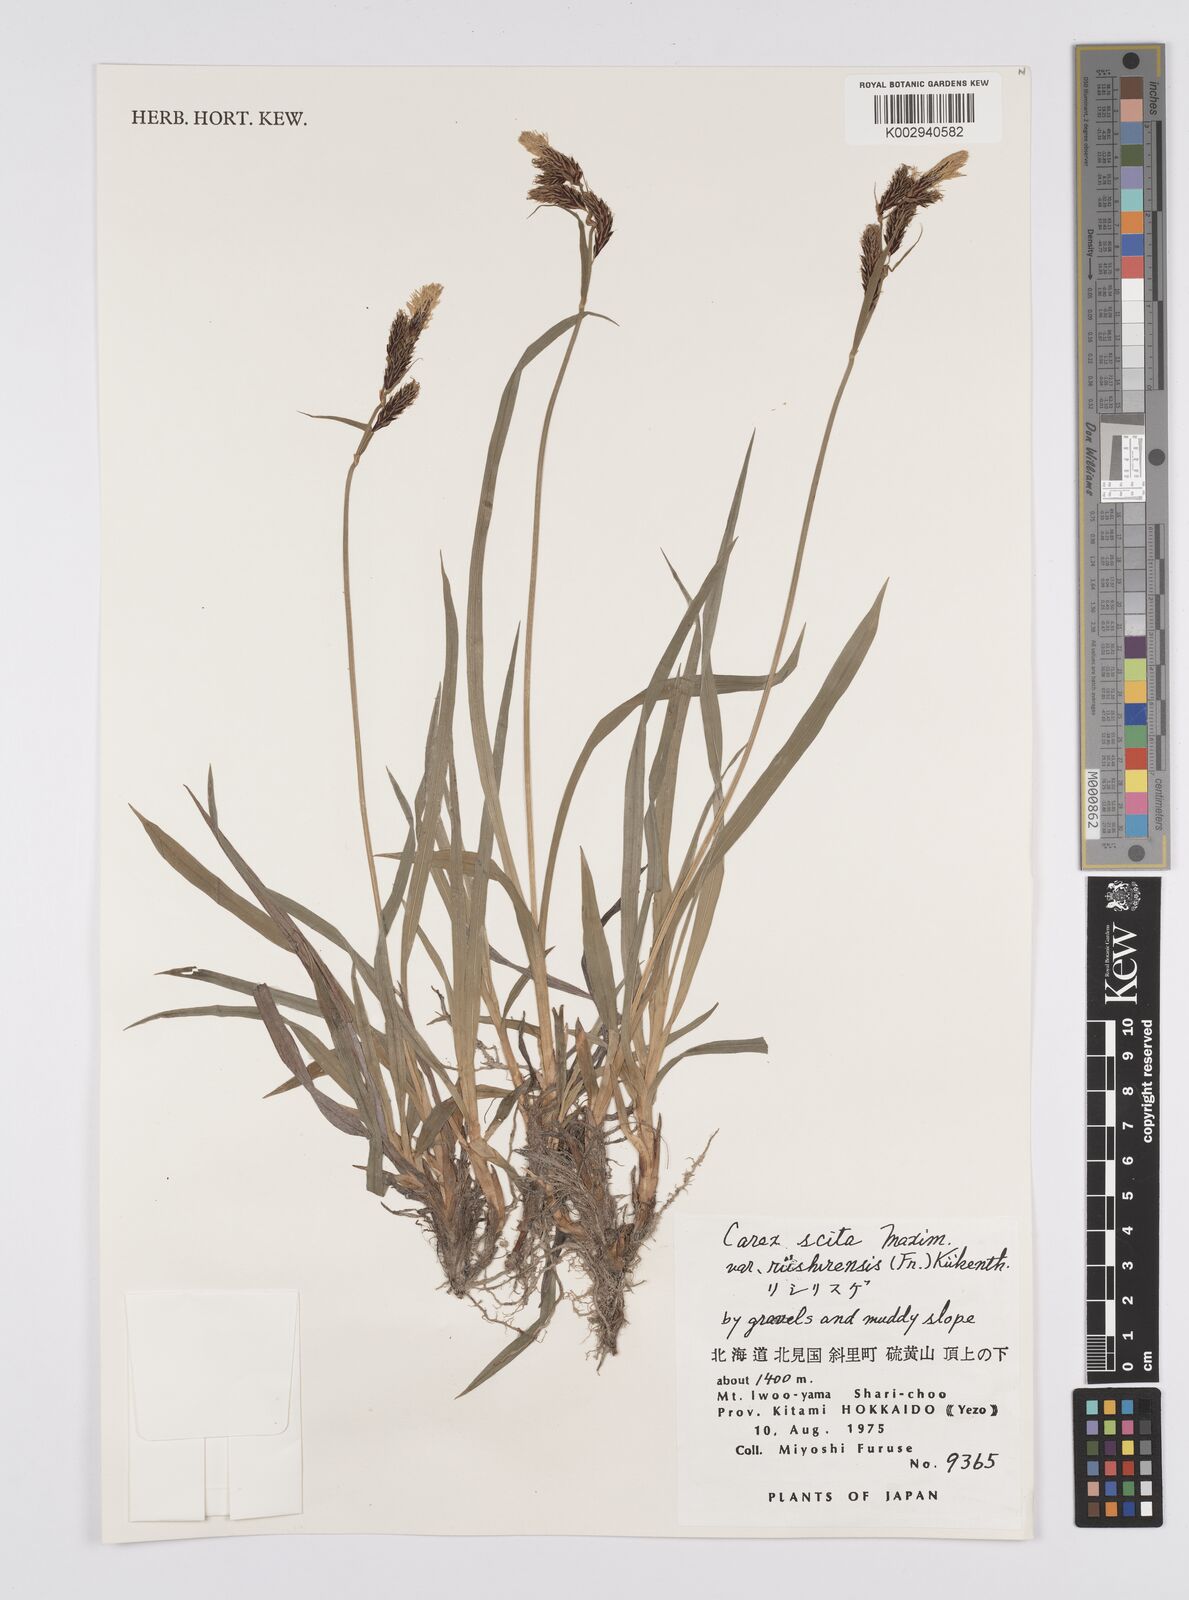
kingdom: Plantae
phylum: Tracheophyta
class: Liliopsida
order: Poales
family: Cyperaceae
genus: Carex
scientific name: Carex scita
